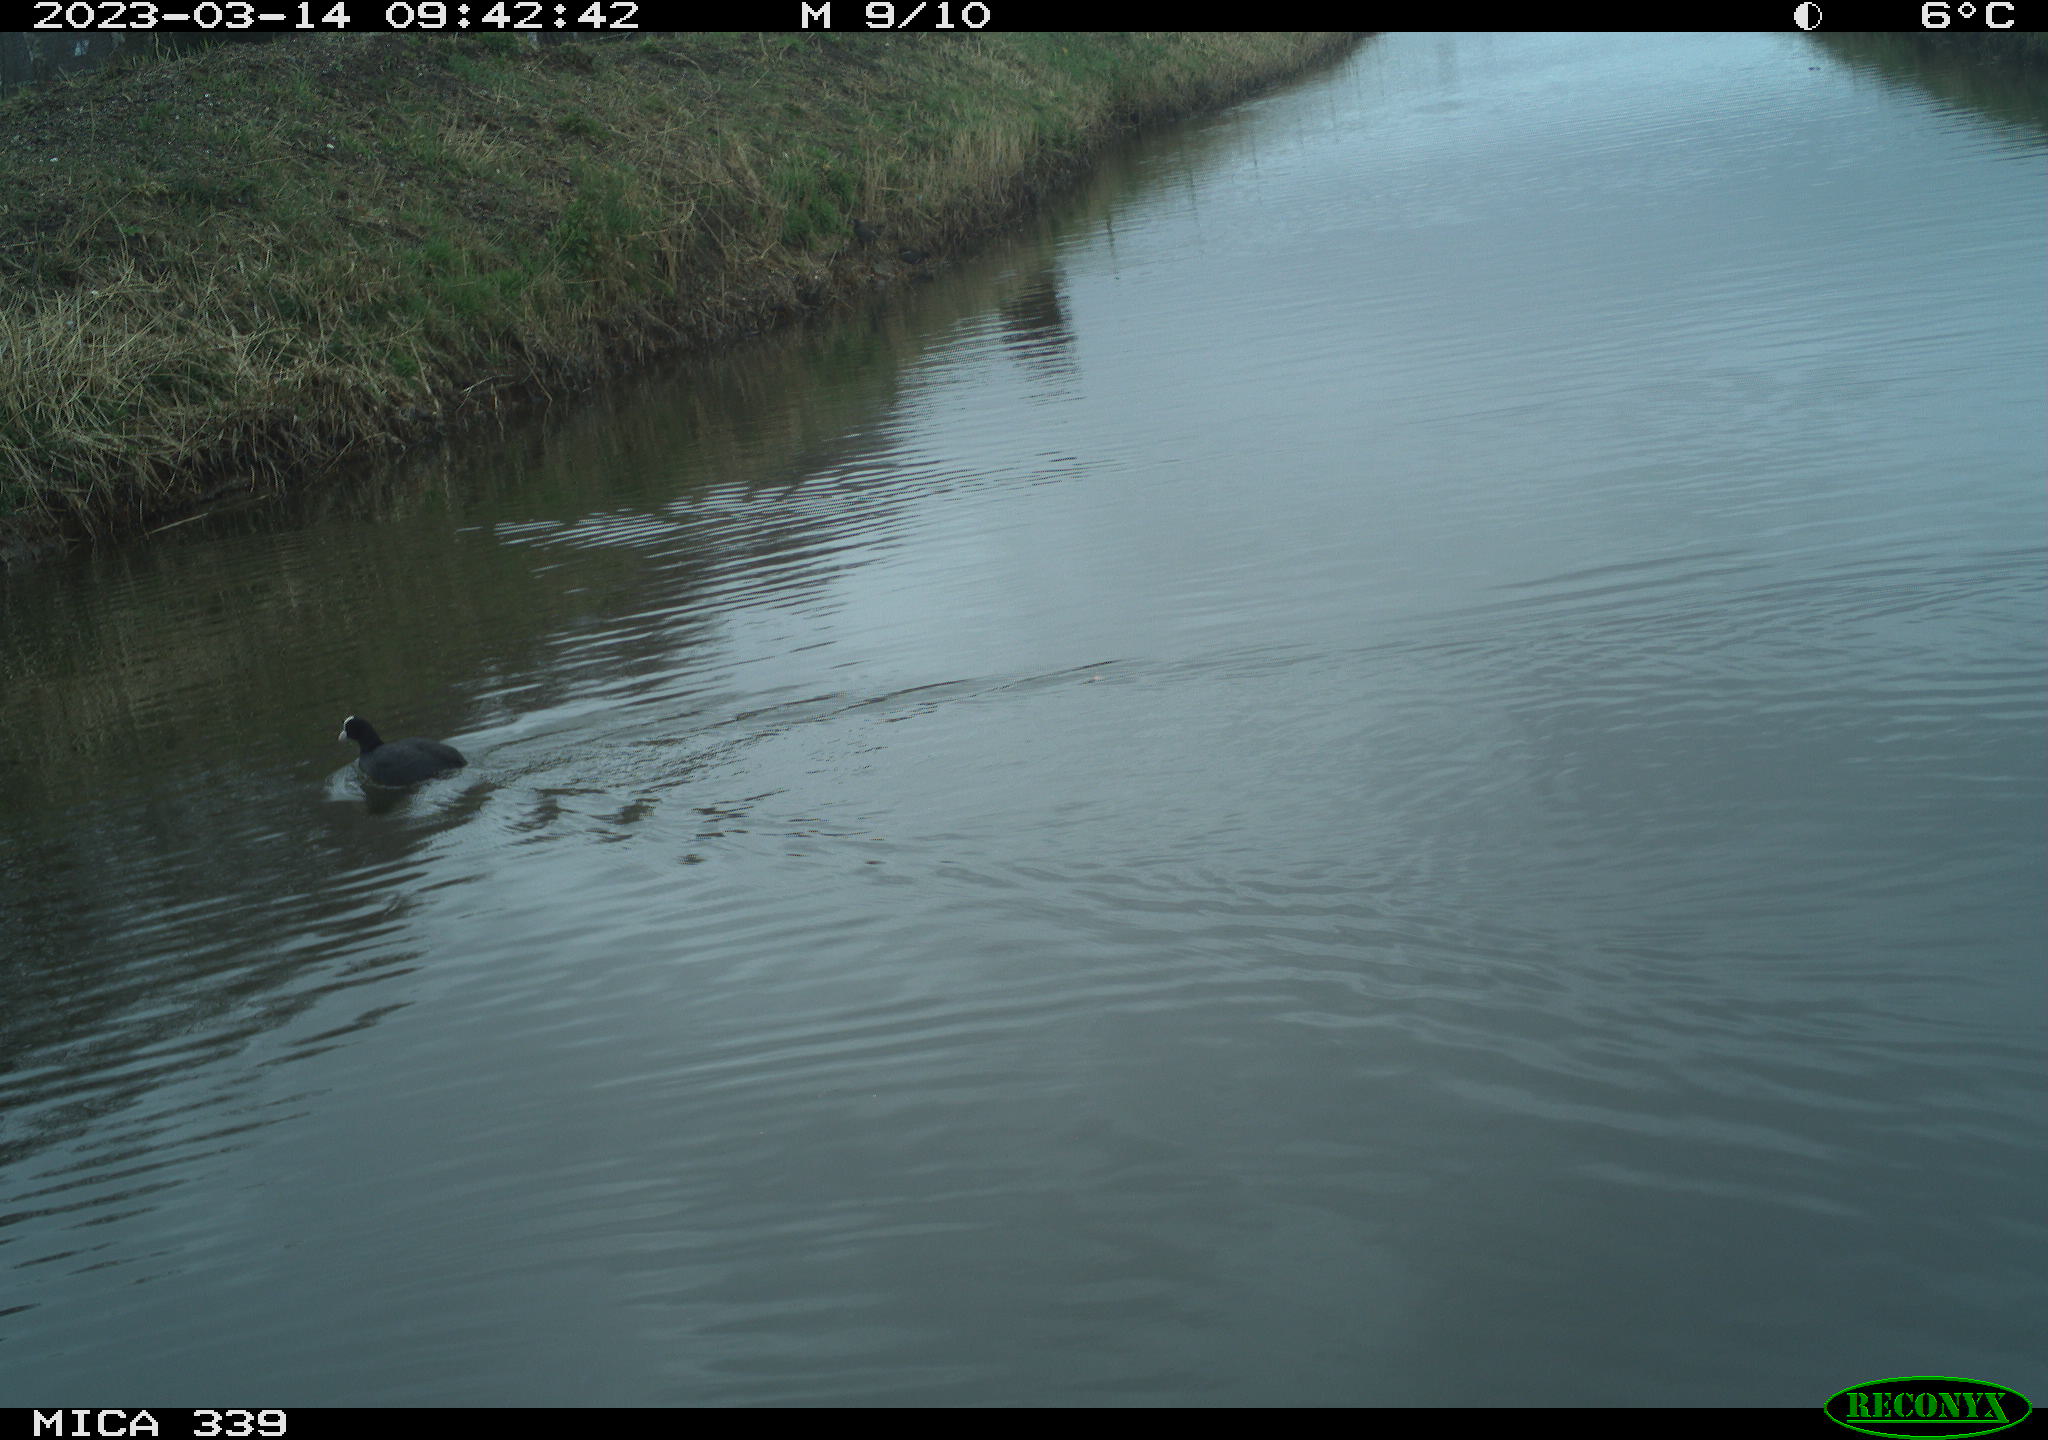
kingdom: Animalia
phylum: Chordata
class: Aves
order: Gruiformes
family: Rallidae
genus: Fulica
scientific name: Fulica atra
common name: Eurasian coot
